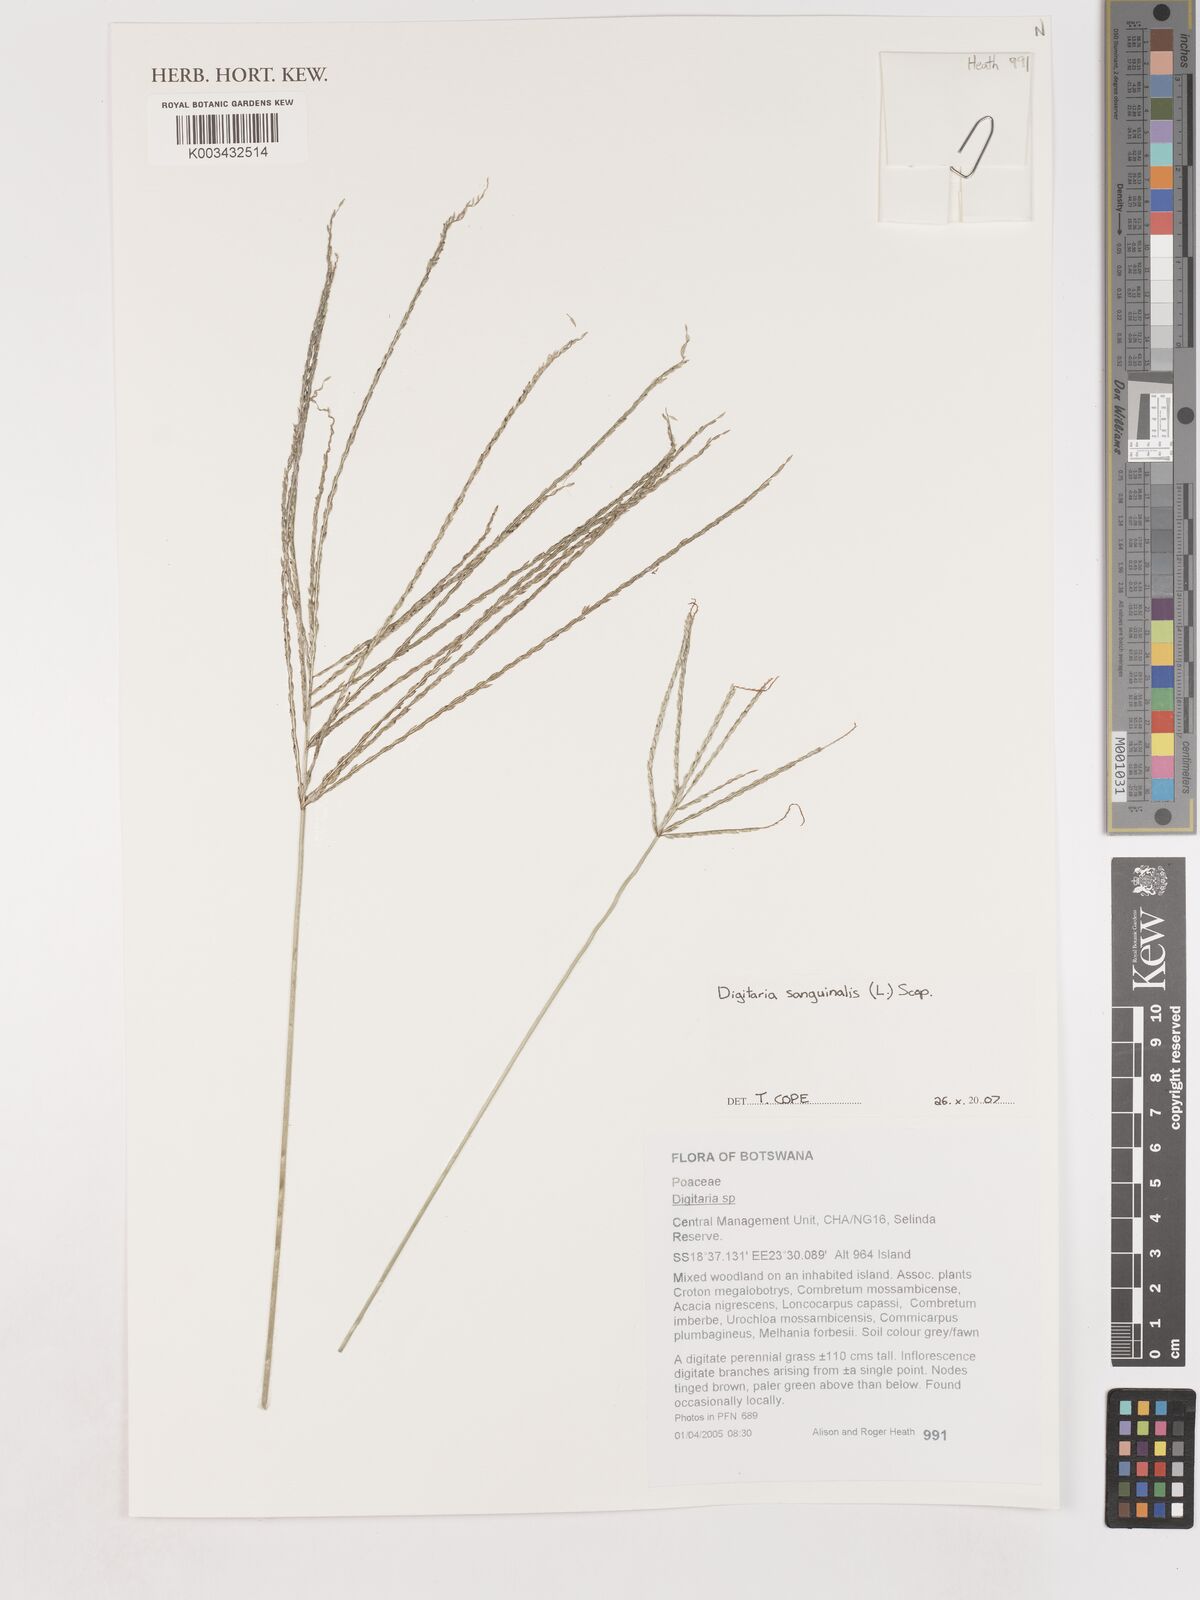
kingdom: Plantae
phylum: Tracheophyta
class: Liliopsida
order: Poales
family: Poaceae
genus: Digitaria
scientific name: Digitaria sanguinalis
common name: Hairy crabgrass
